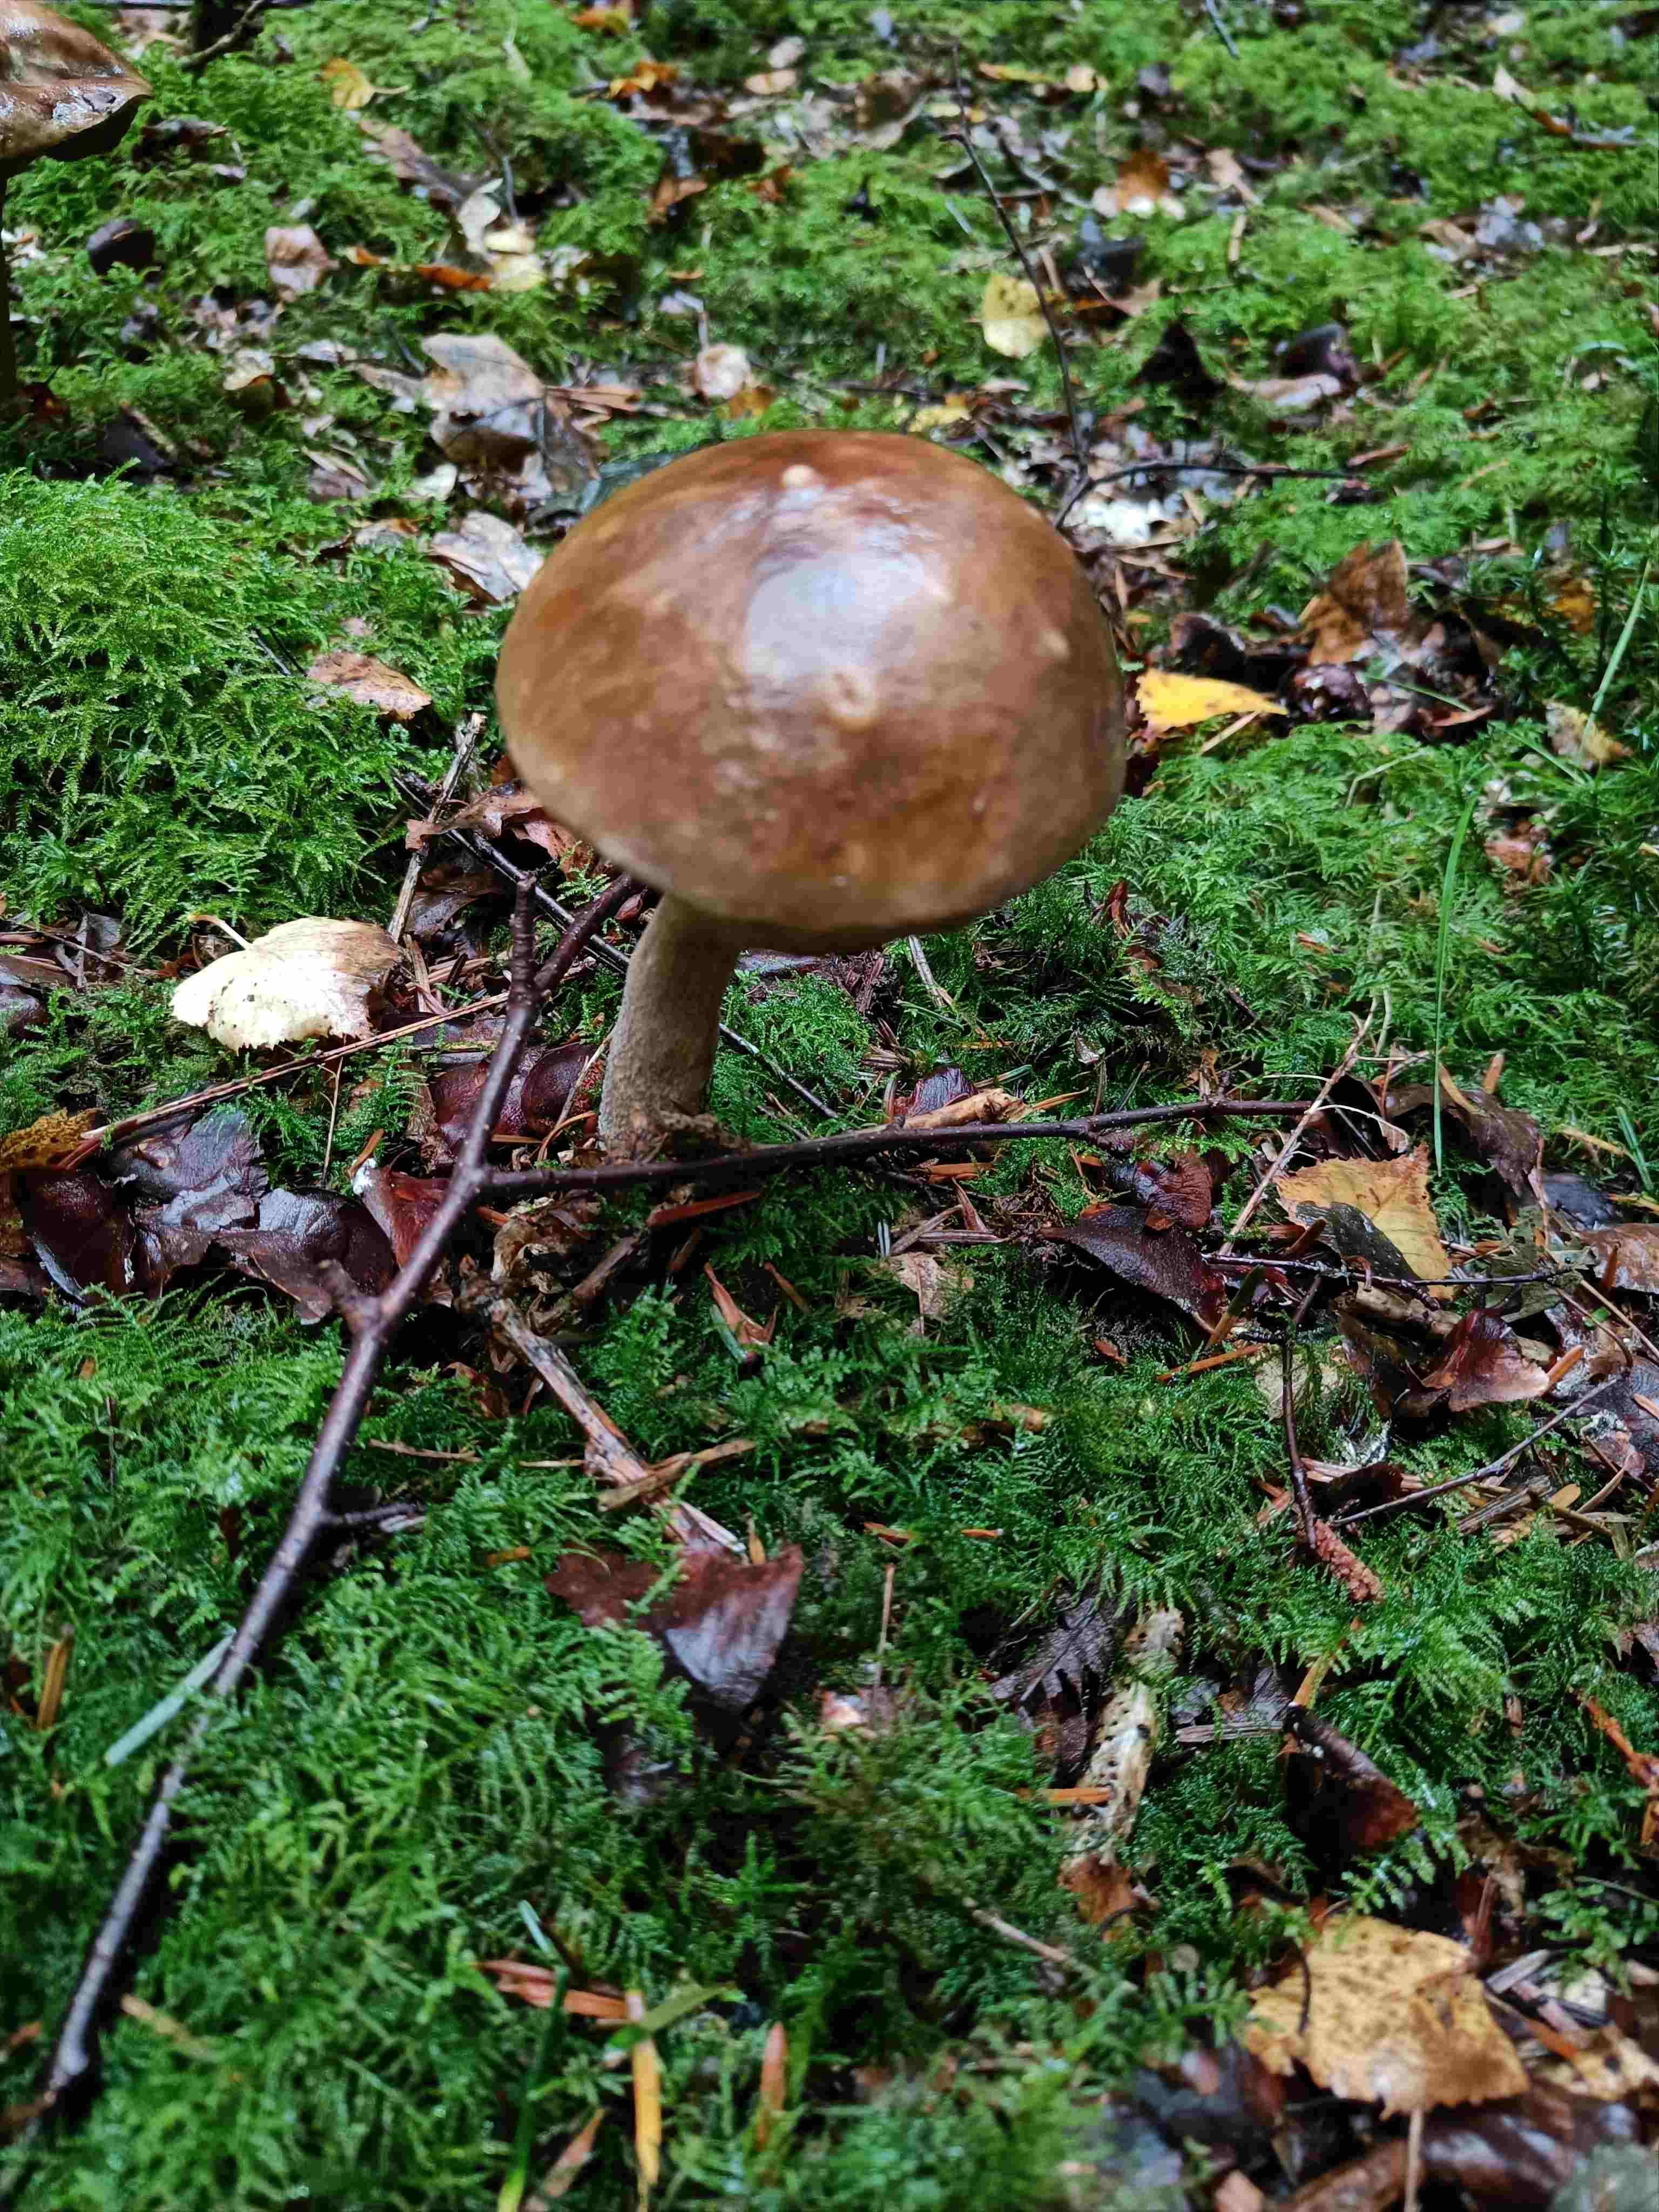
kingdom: Fungi
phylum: Basidiomycota
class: Agaricomycetes
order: Boletales
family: Boletaceae
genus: Leccinum
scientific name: Leccinum
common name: skælrørhat
